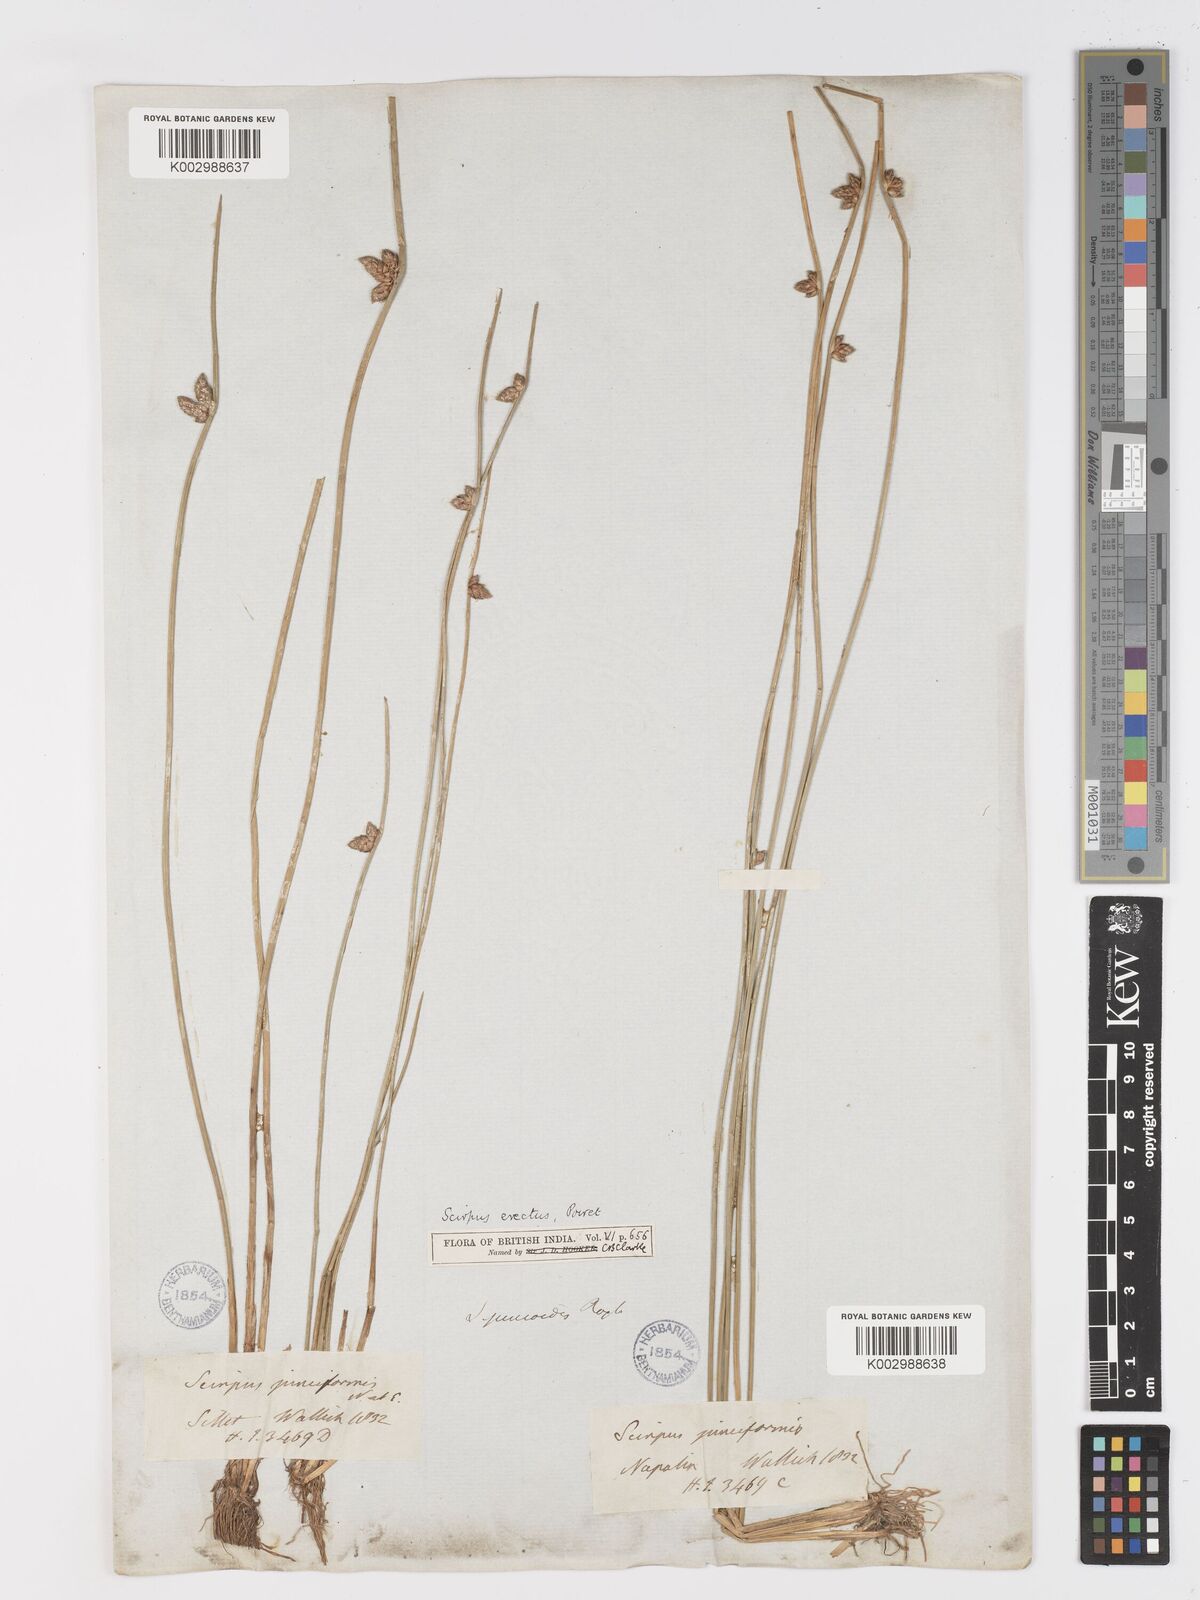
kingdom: Plantae
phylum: Tracheophyta
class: Liliopsida
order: Poales
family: Cyperaceae
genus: Schoenoplectiella
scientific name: Schoenoplectiella juncoides
